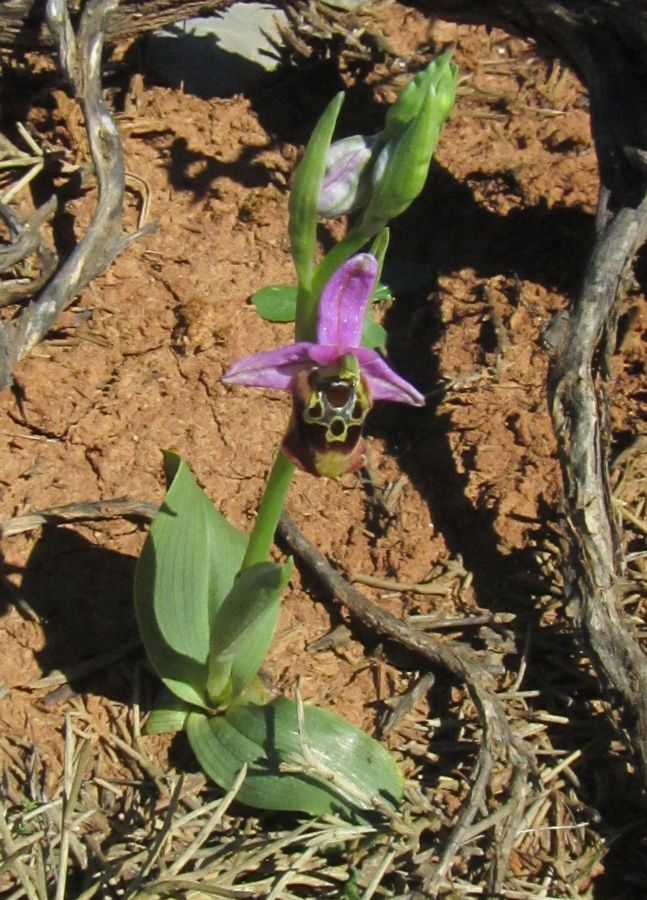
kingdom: Plantae
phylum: Tracheophyta
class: Liliopsida
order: Asparagales
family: Orchidaceae
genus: Ophrys
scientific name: Ophrys bornmuelleri
